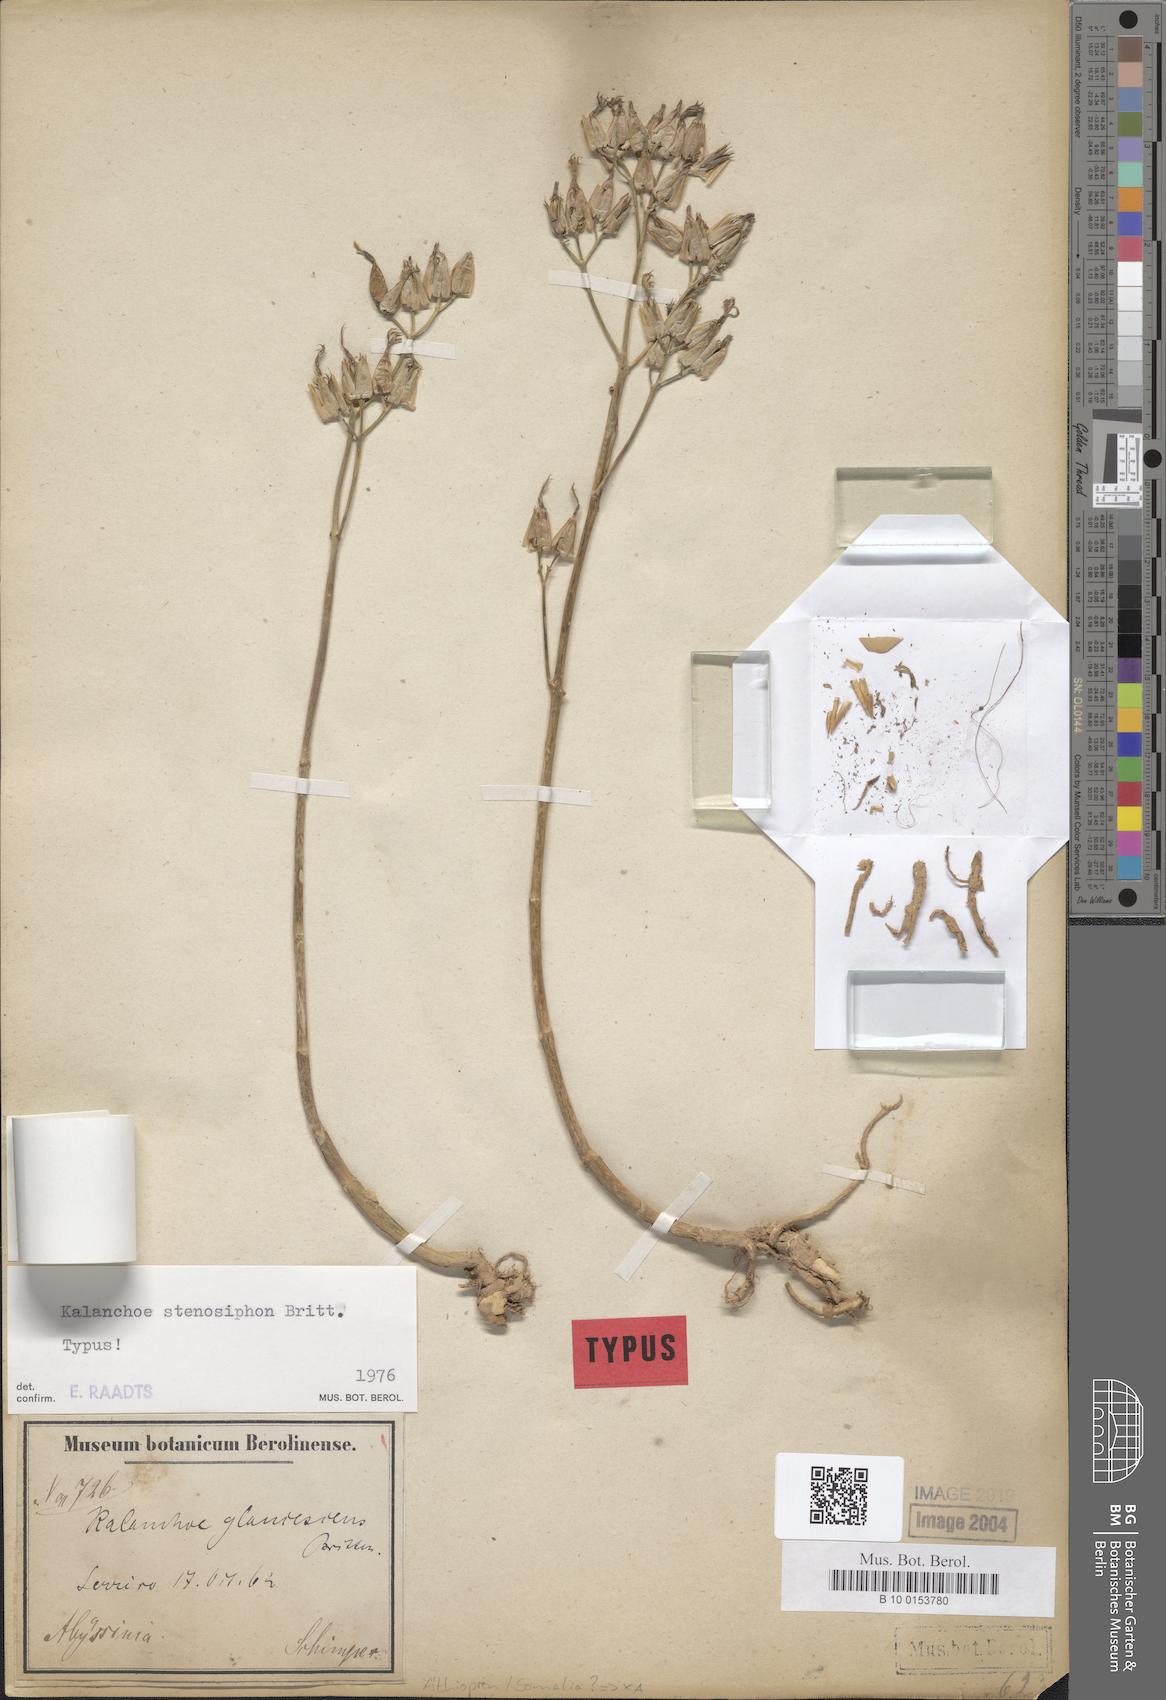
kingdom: Plantae
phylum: Tracheophyta
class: Magnoliopsida
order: Saxifragales
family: Crassulaceae
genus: Kalanchoe
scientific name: Kalanchoe stenosiphon
